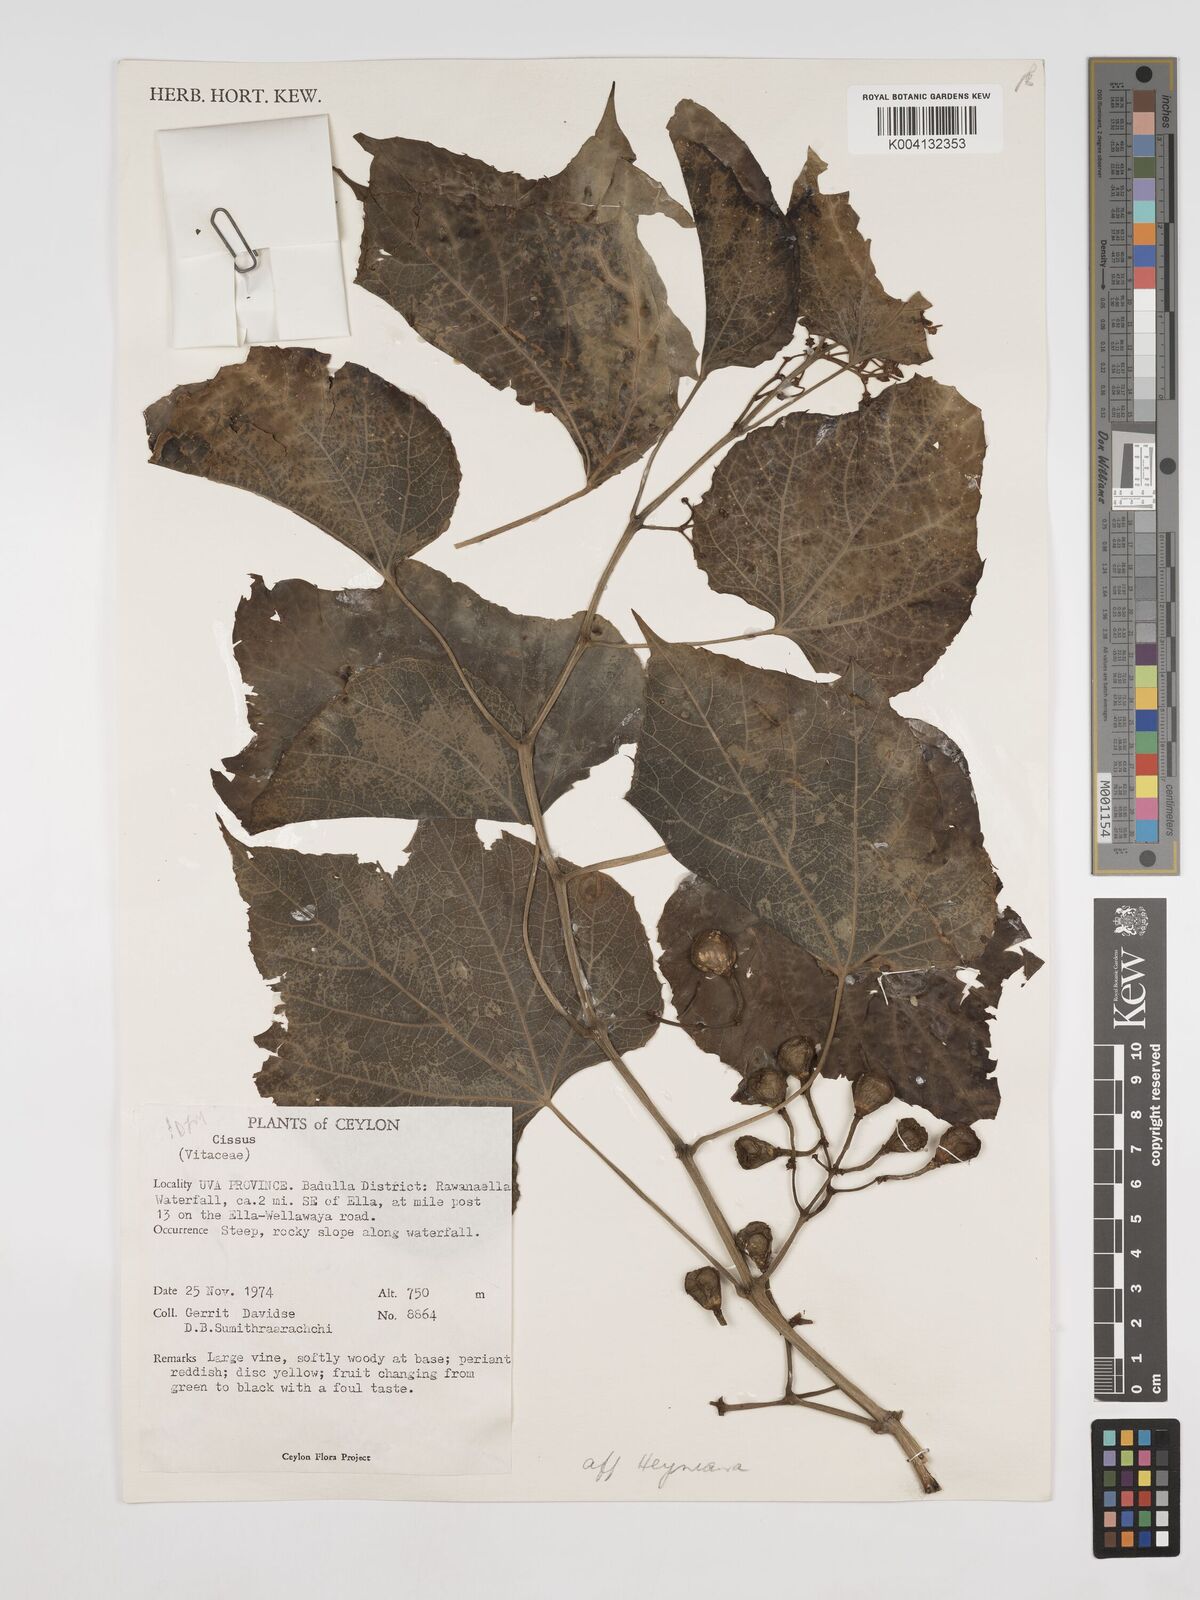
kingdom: Plantae
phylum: Tracheophyta
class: Magnoliopsida
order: Vitales
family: Vitaceae
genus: Cissus
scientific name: Cissus heyneana
